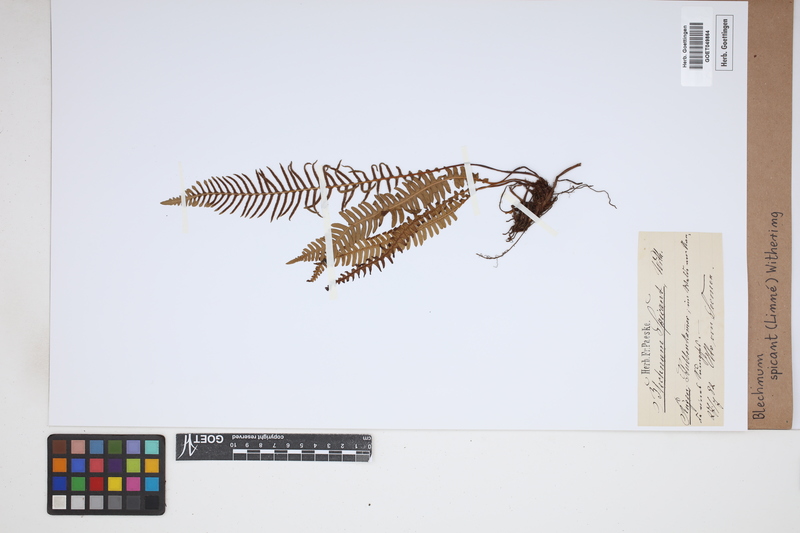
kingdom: Plantae
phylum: Tracheophyta
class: Polypodiopsida
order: Polypodiales
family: Blechnaceae
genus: Struthiopteris
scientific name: Struthiopteris spicant
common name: Deer fern
